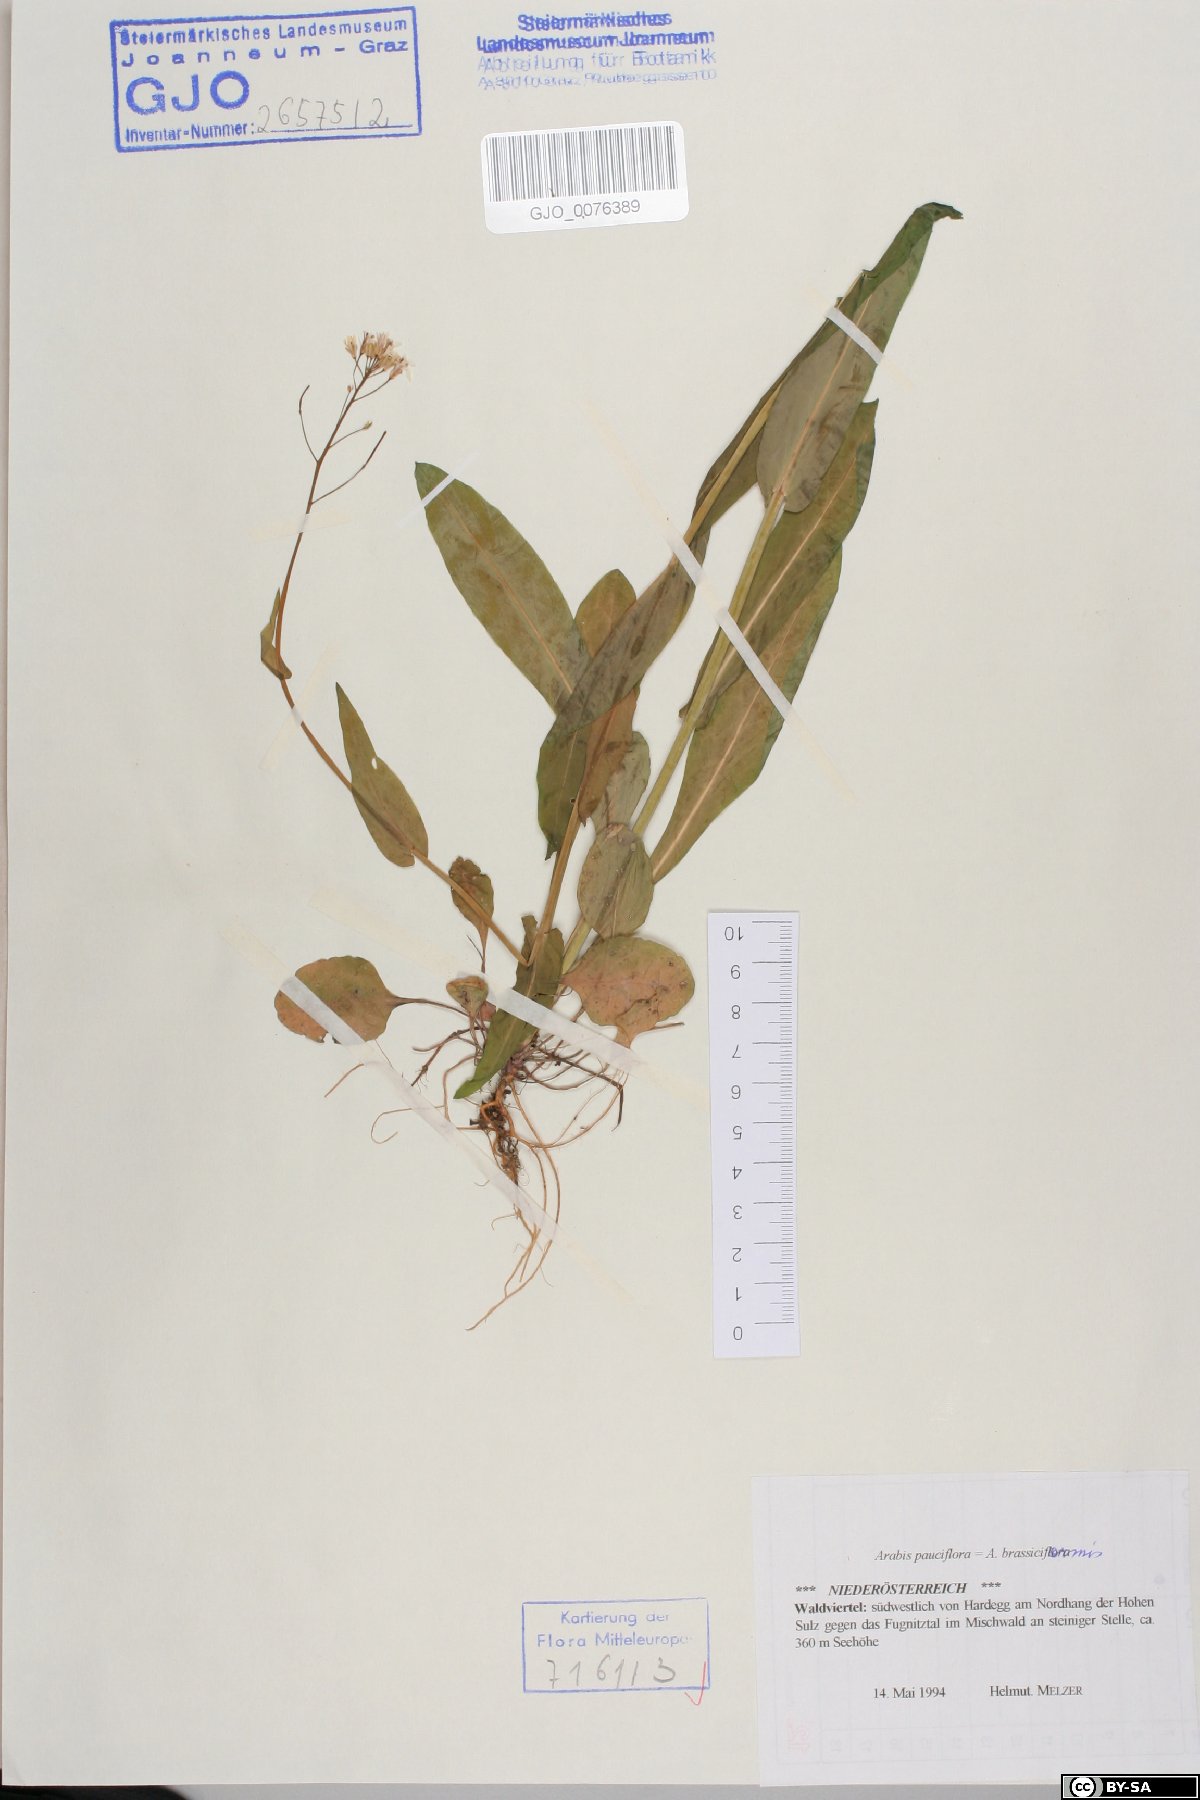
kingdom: Plantae
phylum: Tracheophyta
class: Magnoliopsida
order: Brassicales
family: Brassicaceae
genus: Fourraea
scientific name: Fourraea alpina
